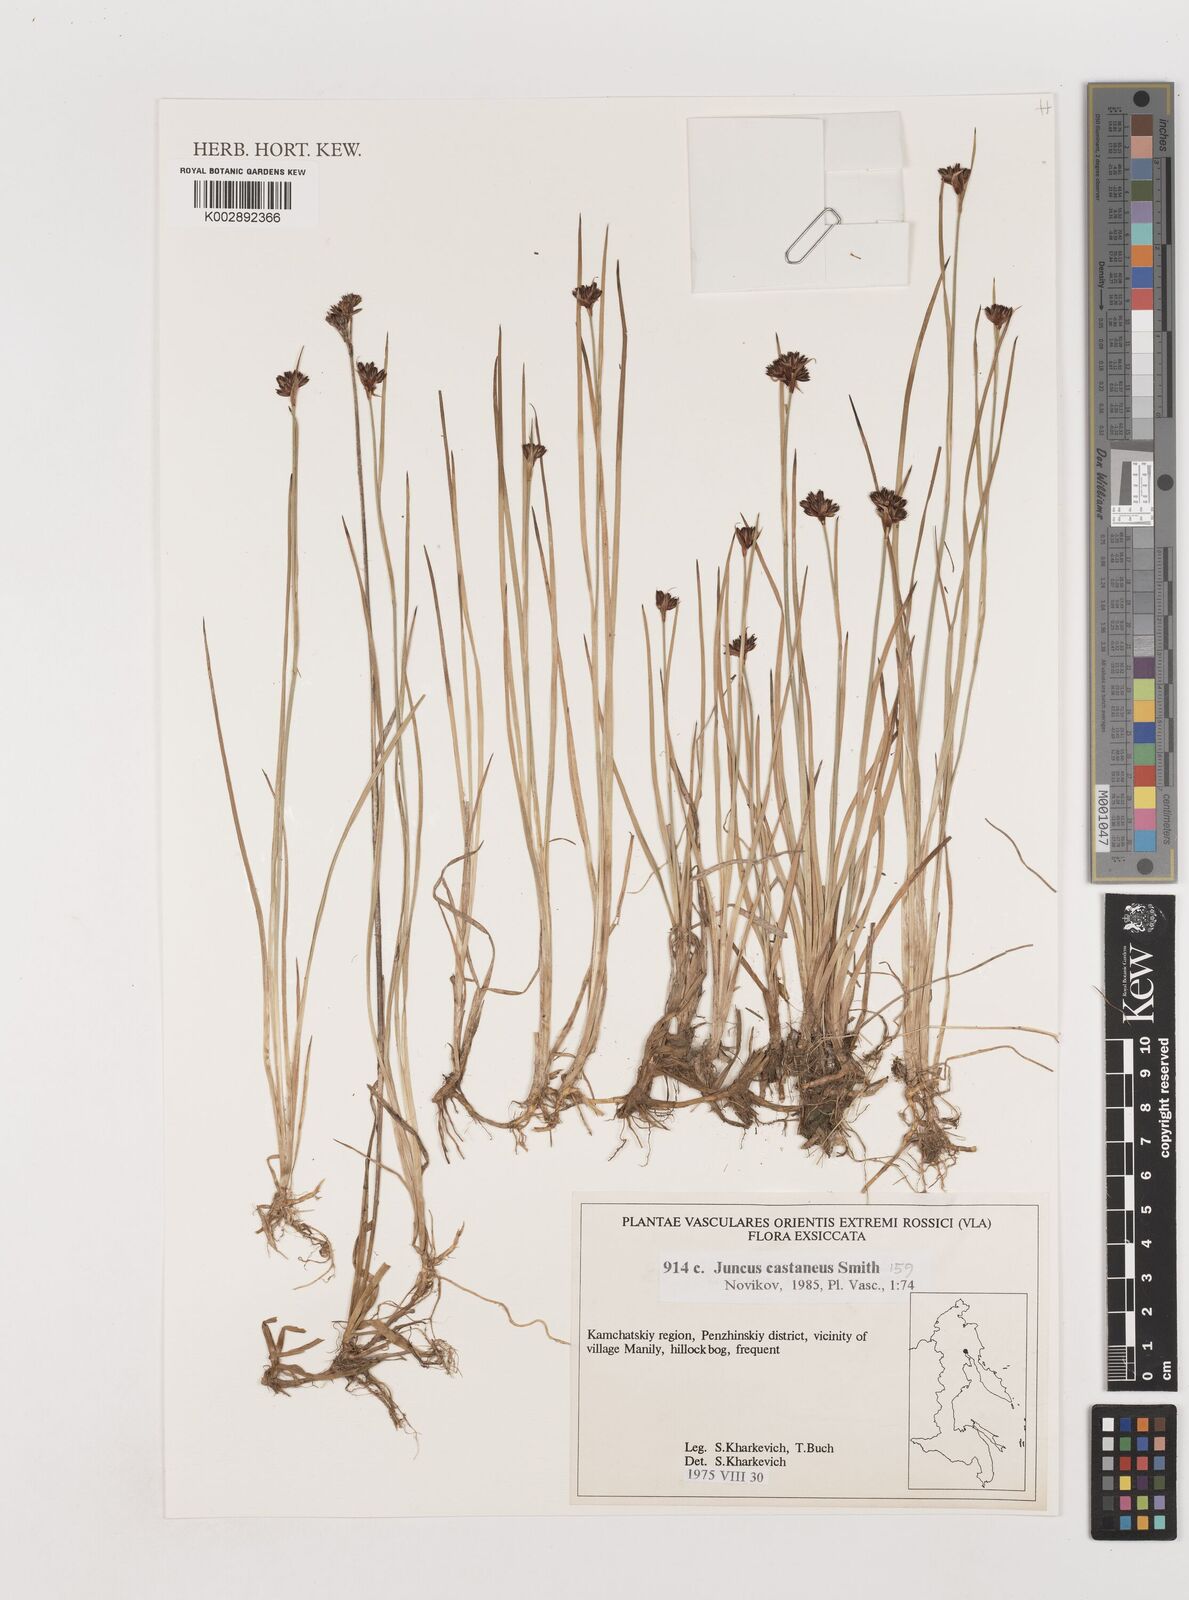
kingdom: Plantae
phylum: Tracheophyta
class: Liliopsida
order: Poales
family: Juncaceae
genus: Juncus
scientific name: Juncus castaneus
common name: Chestnut rush
